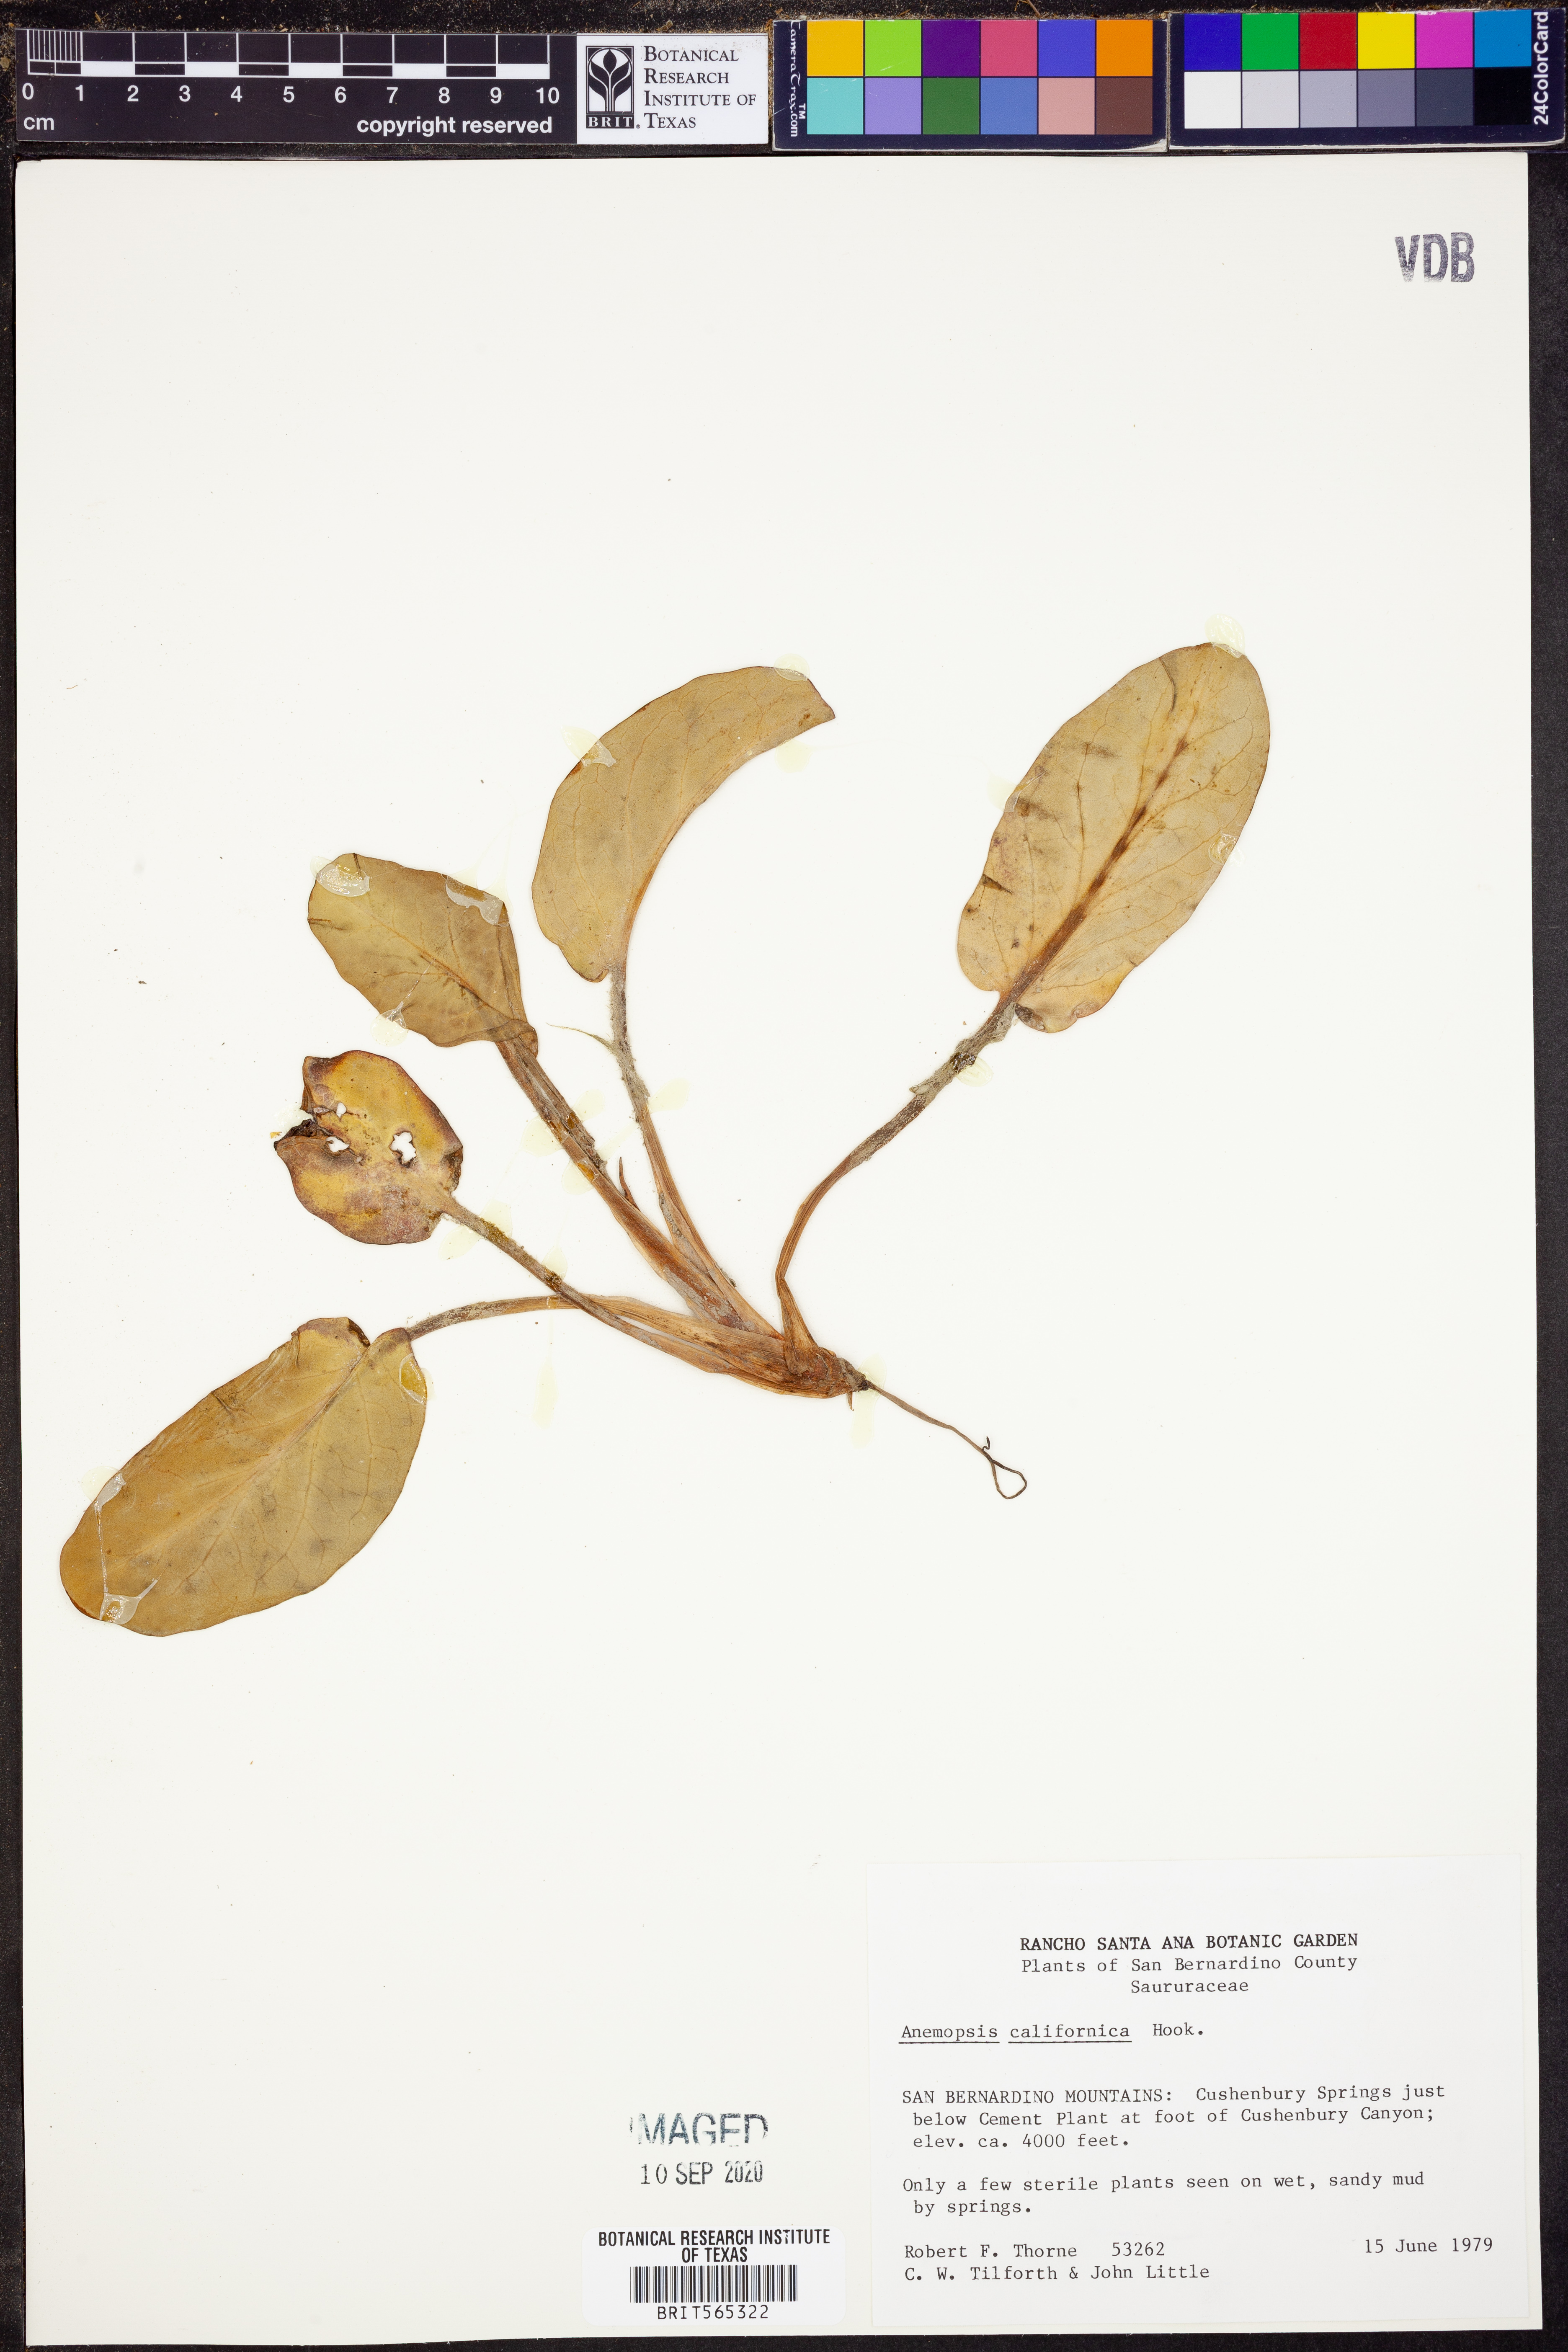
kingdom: Plantae
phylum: Tracheophyta
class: Magnoliopsida
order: Piperales
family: Saururaceae
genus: Anemopsis
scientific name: Anemopsis californica
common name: Apache-beads
